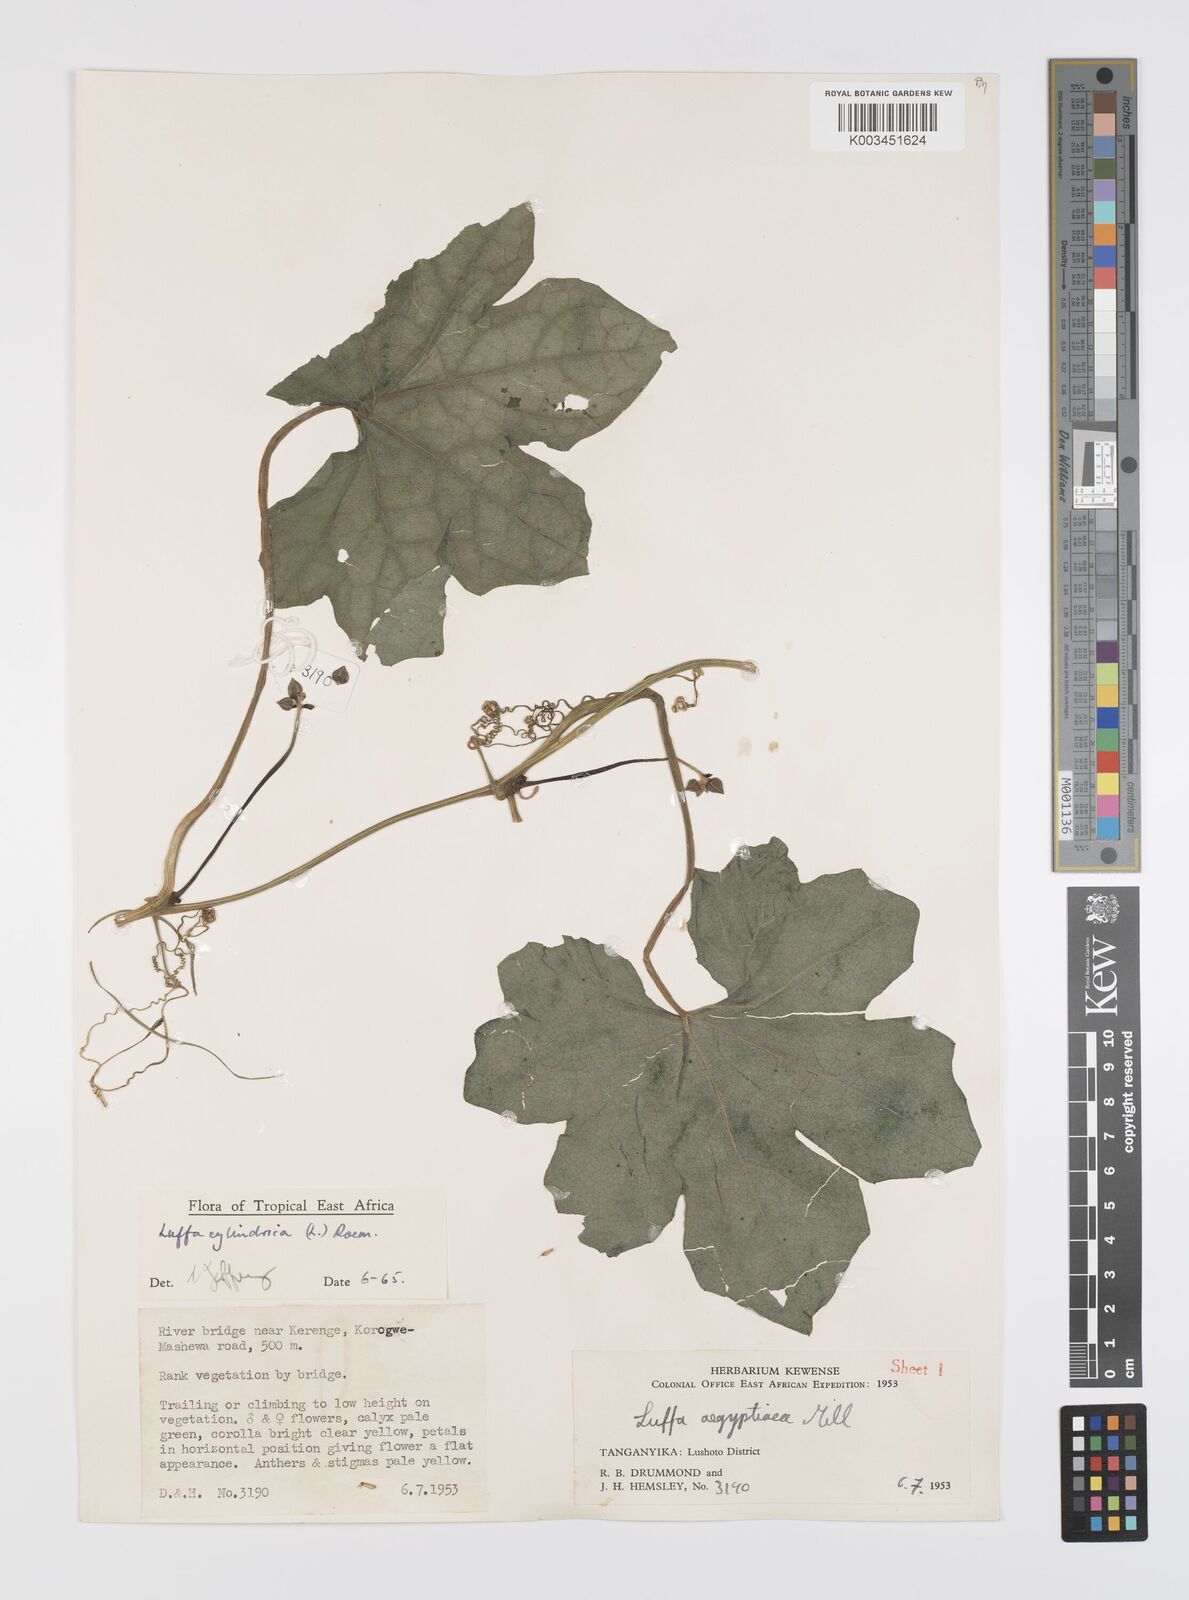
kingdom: Plantae
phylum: Tracheophyta
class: Magnoliopsida
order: Cucurbitales
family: Cucurbitaceae
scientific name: Cucurbitaceae
